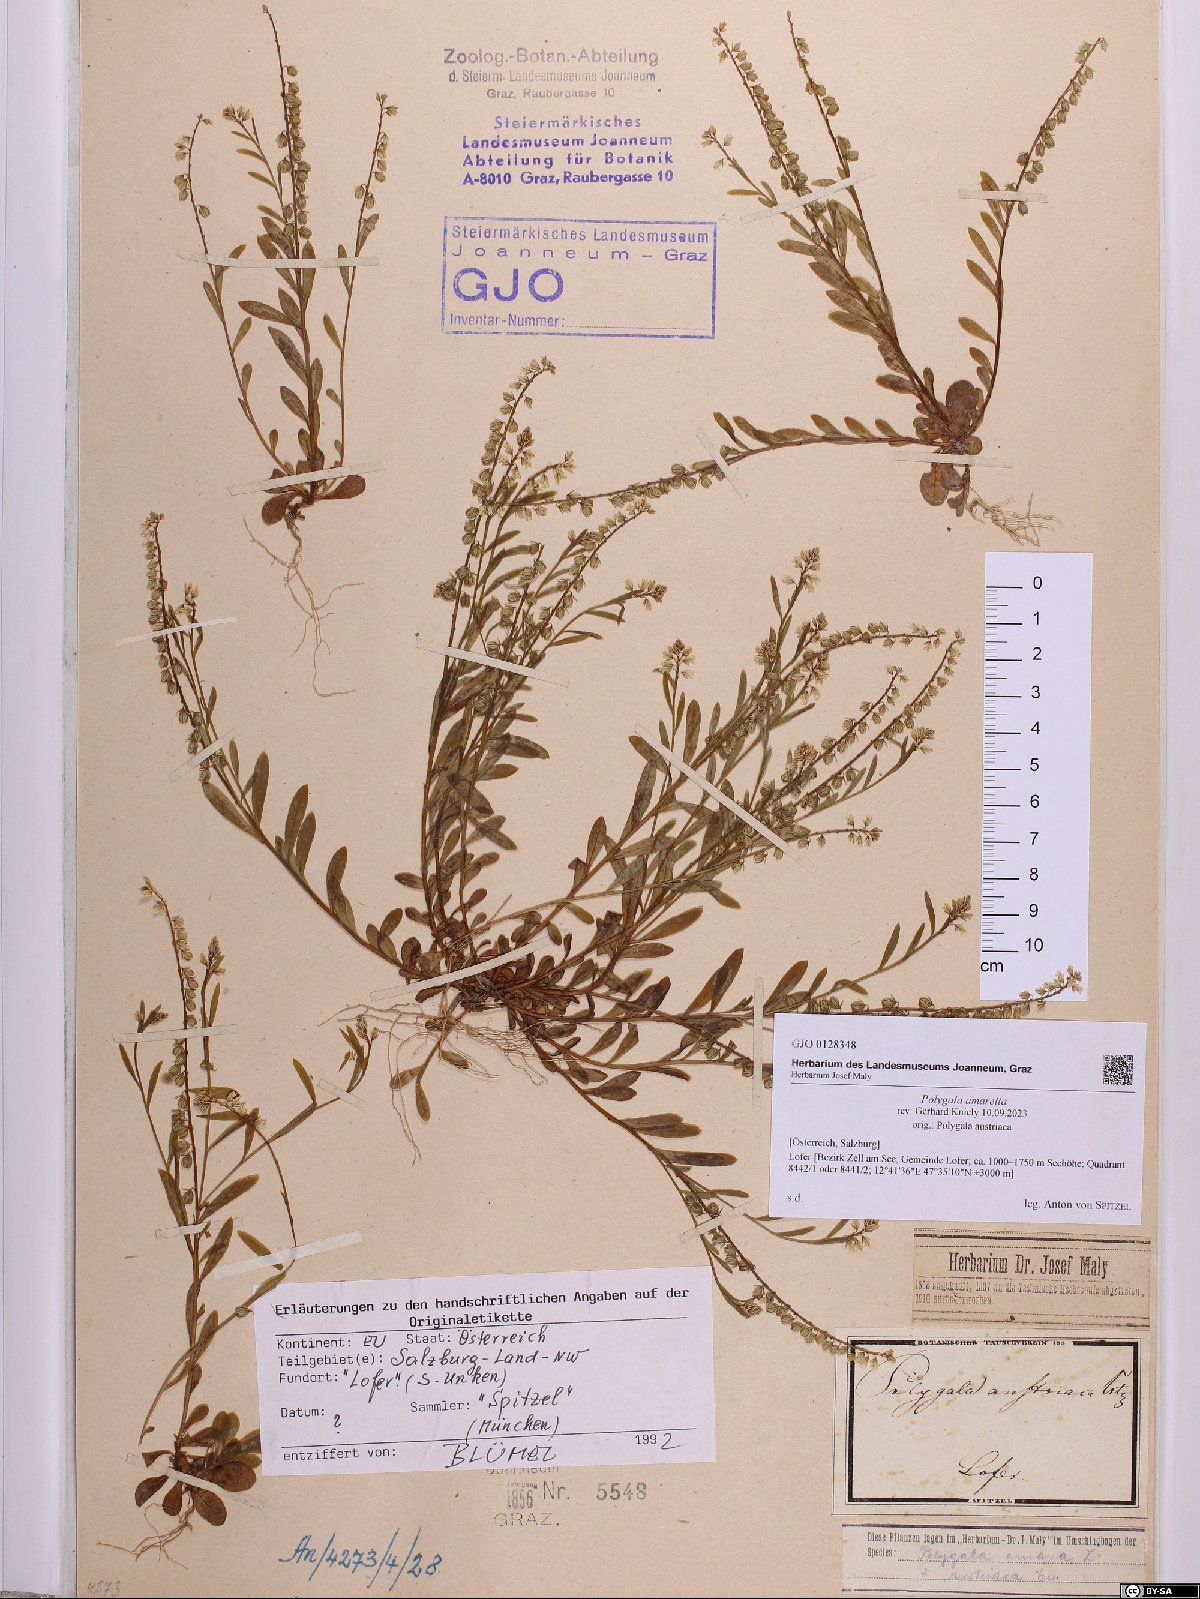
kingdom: Plantae
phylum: Tracheophyta
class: Magnoliopsida
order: Fabales
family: Polygalaceae
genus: Polygala
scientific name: Polygala amarella
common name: Dwarf milkwort
